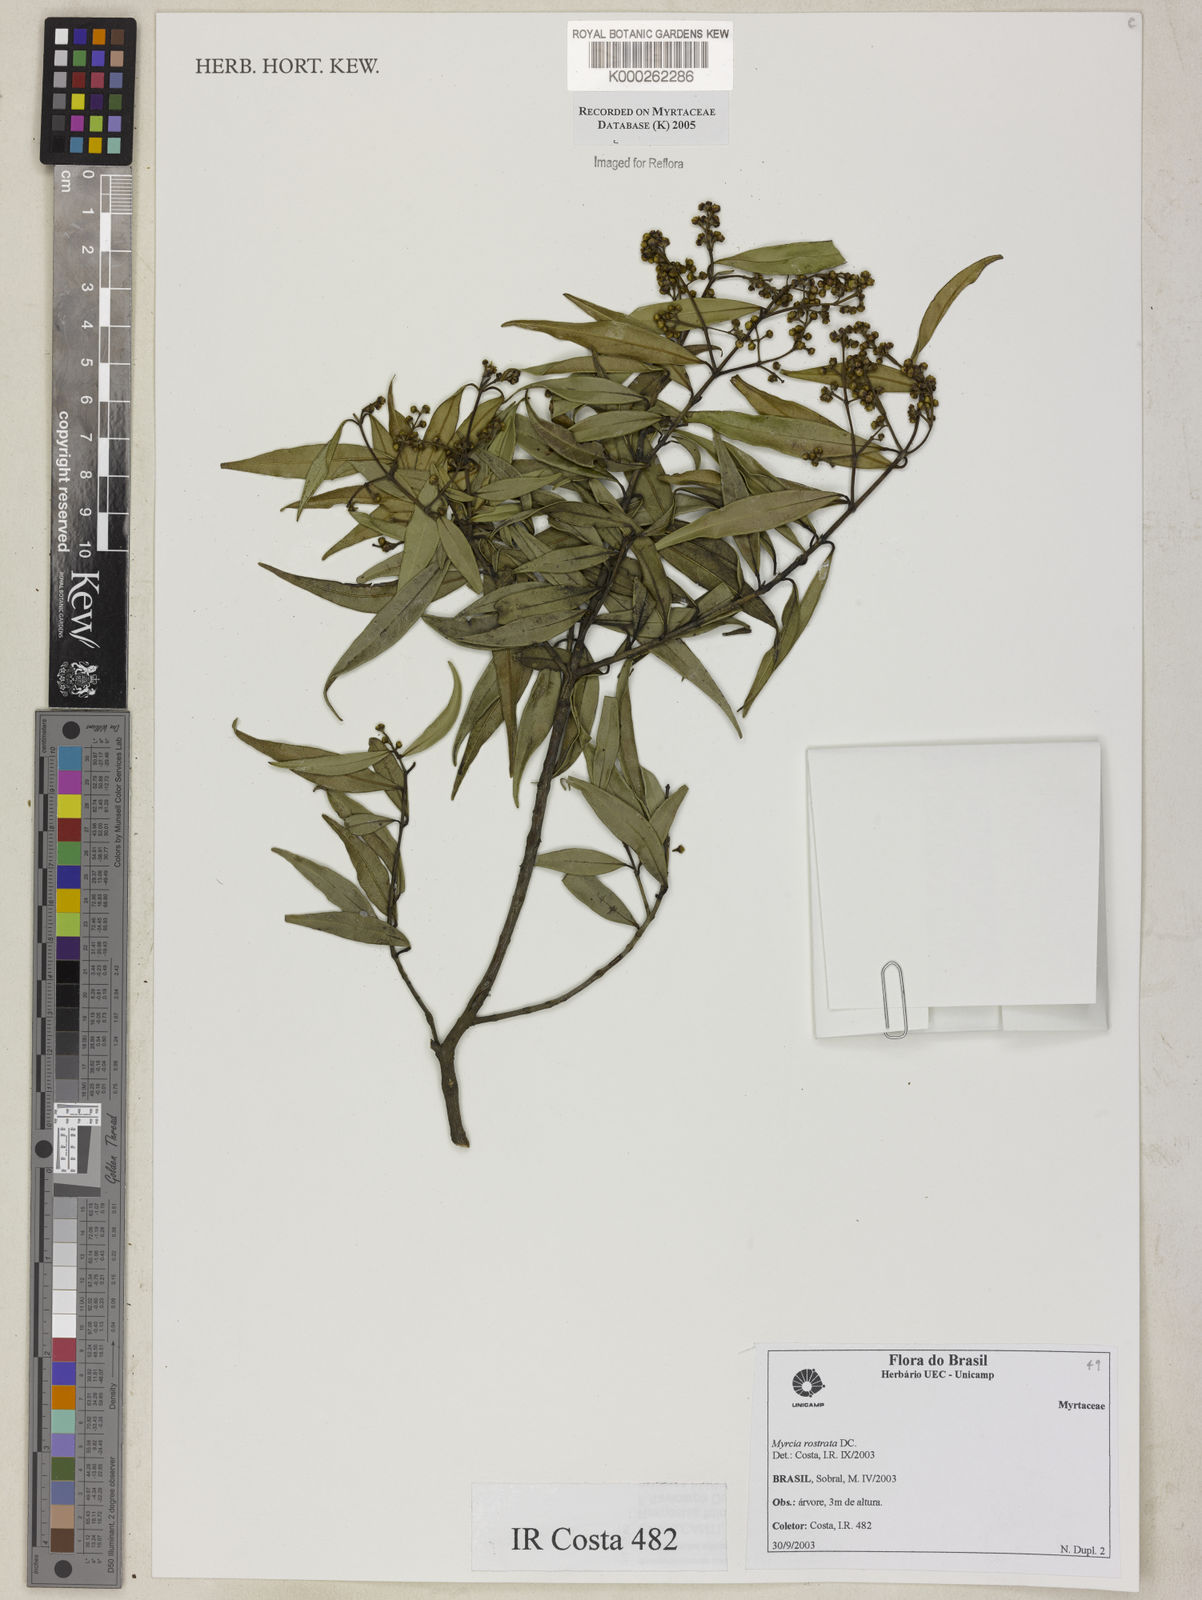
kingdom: Plantae
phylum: Tracheophyta
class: Magnoliopsida
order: Myrtales
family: Myrtaceae
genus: Myrcia
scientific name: Myrcia splendens
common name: Surinam cherry
